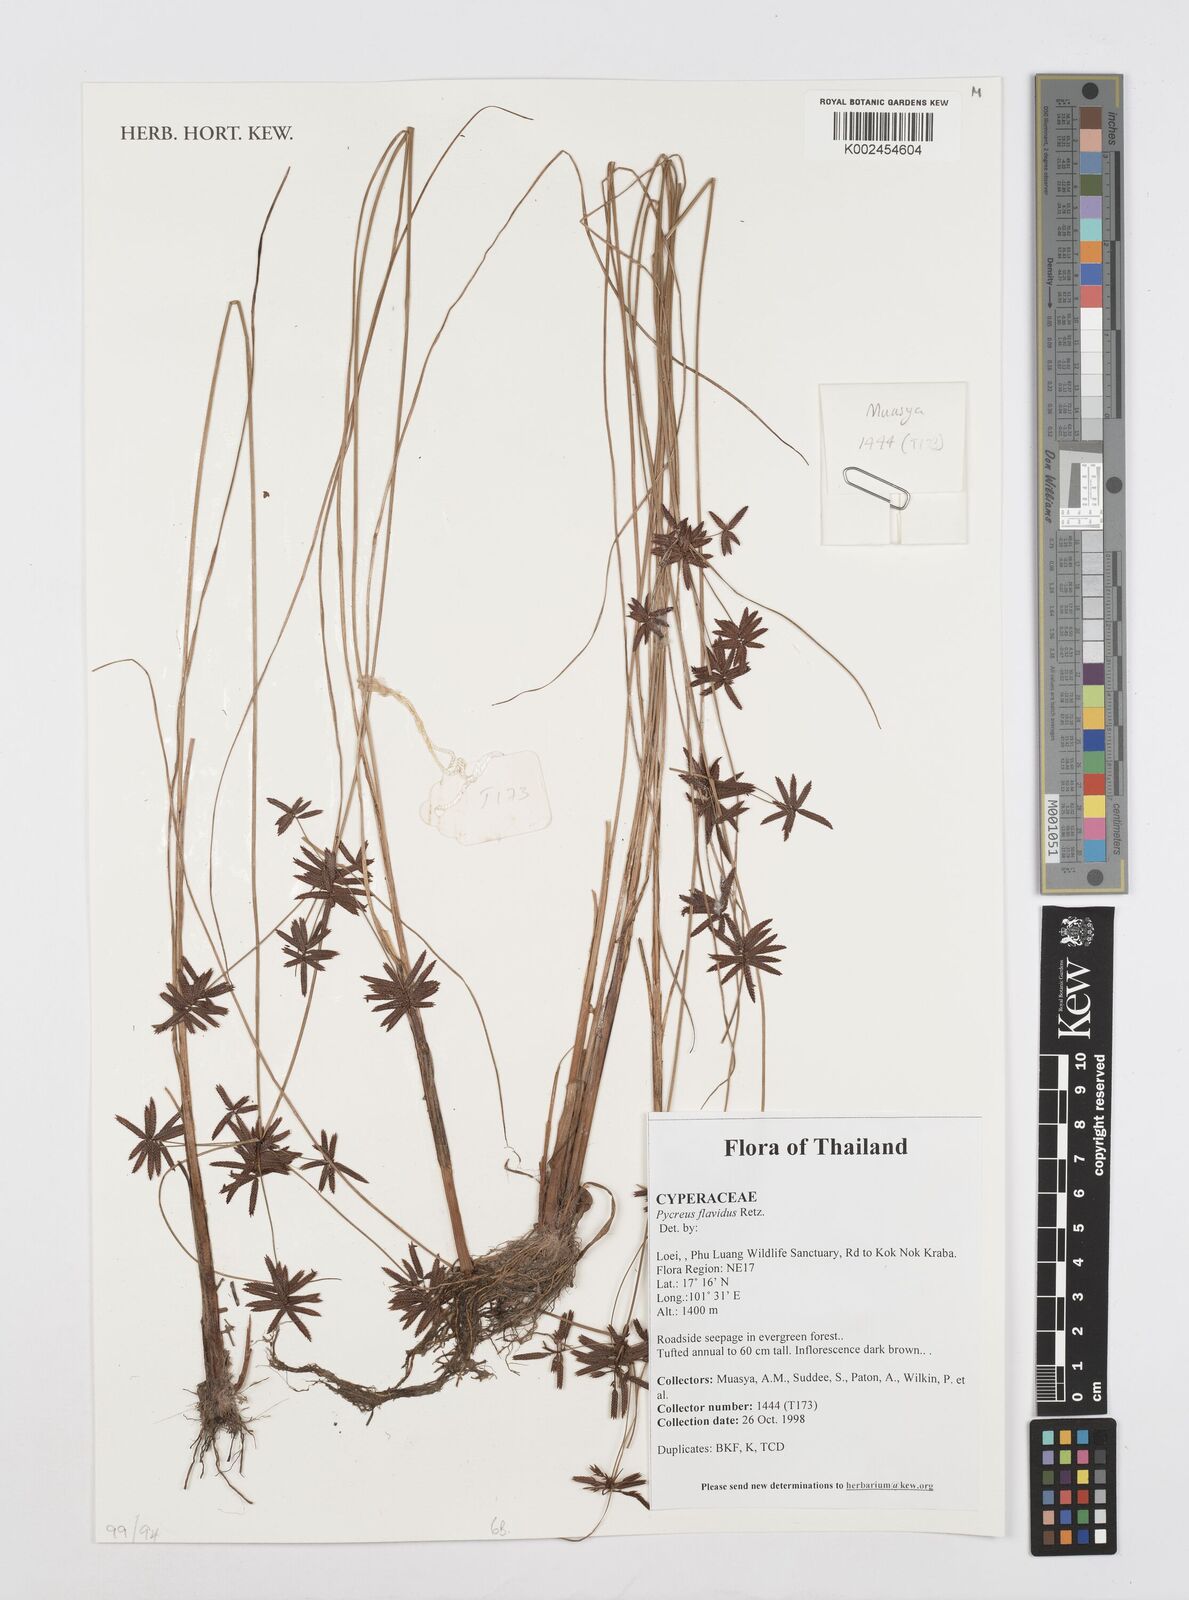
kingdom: Plantae
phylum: Tracheophyta
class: Liliopsida
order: Poales
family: Cyperaceae
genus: Cyperus
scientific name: Cyperus flavidus
